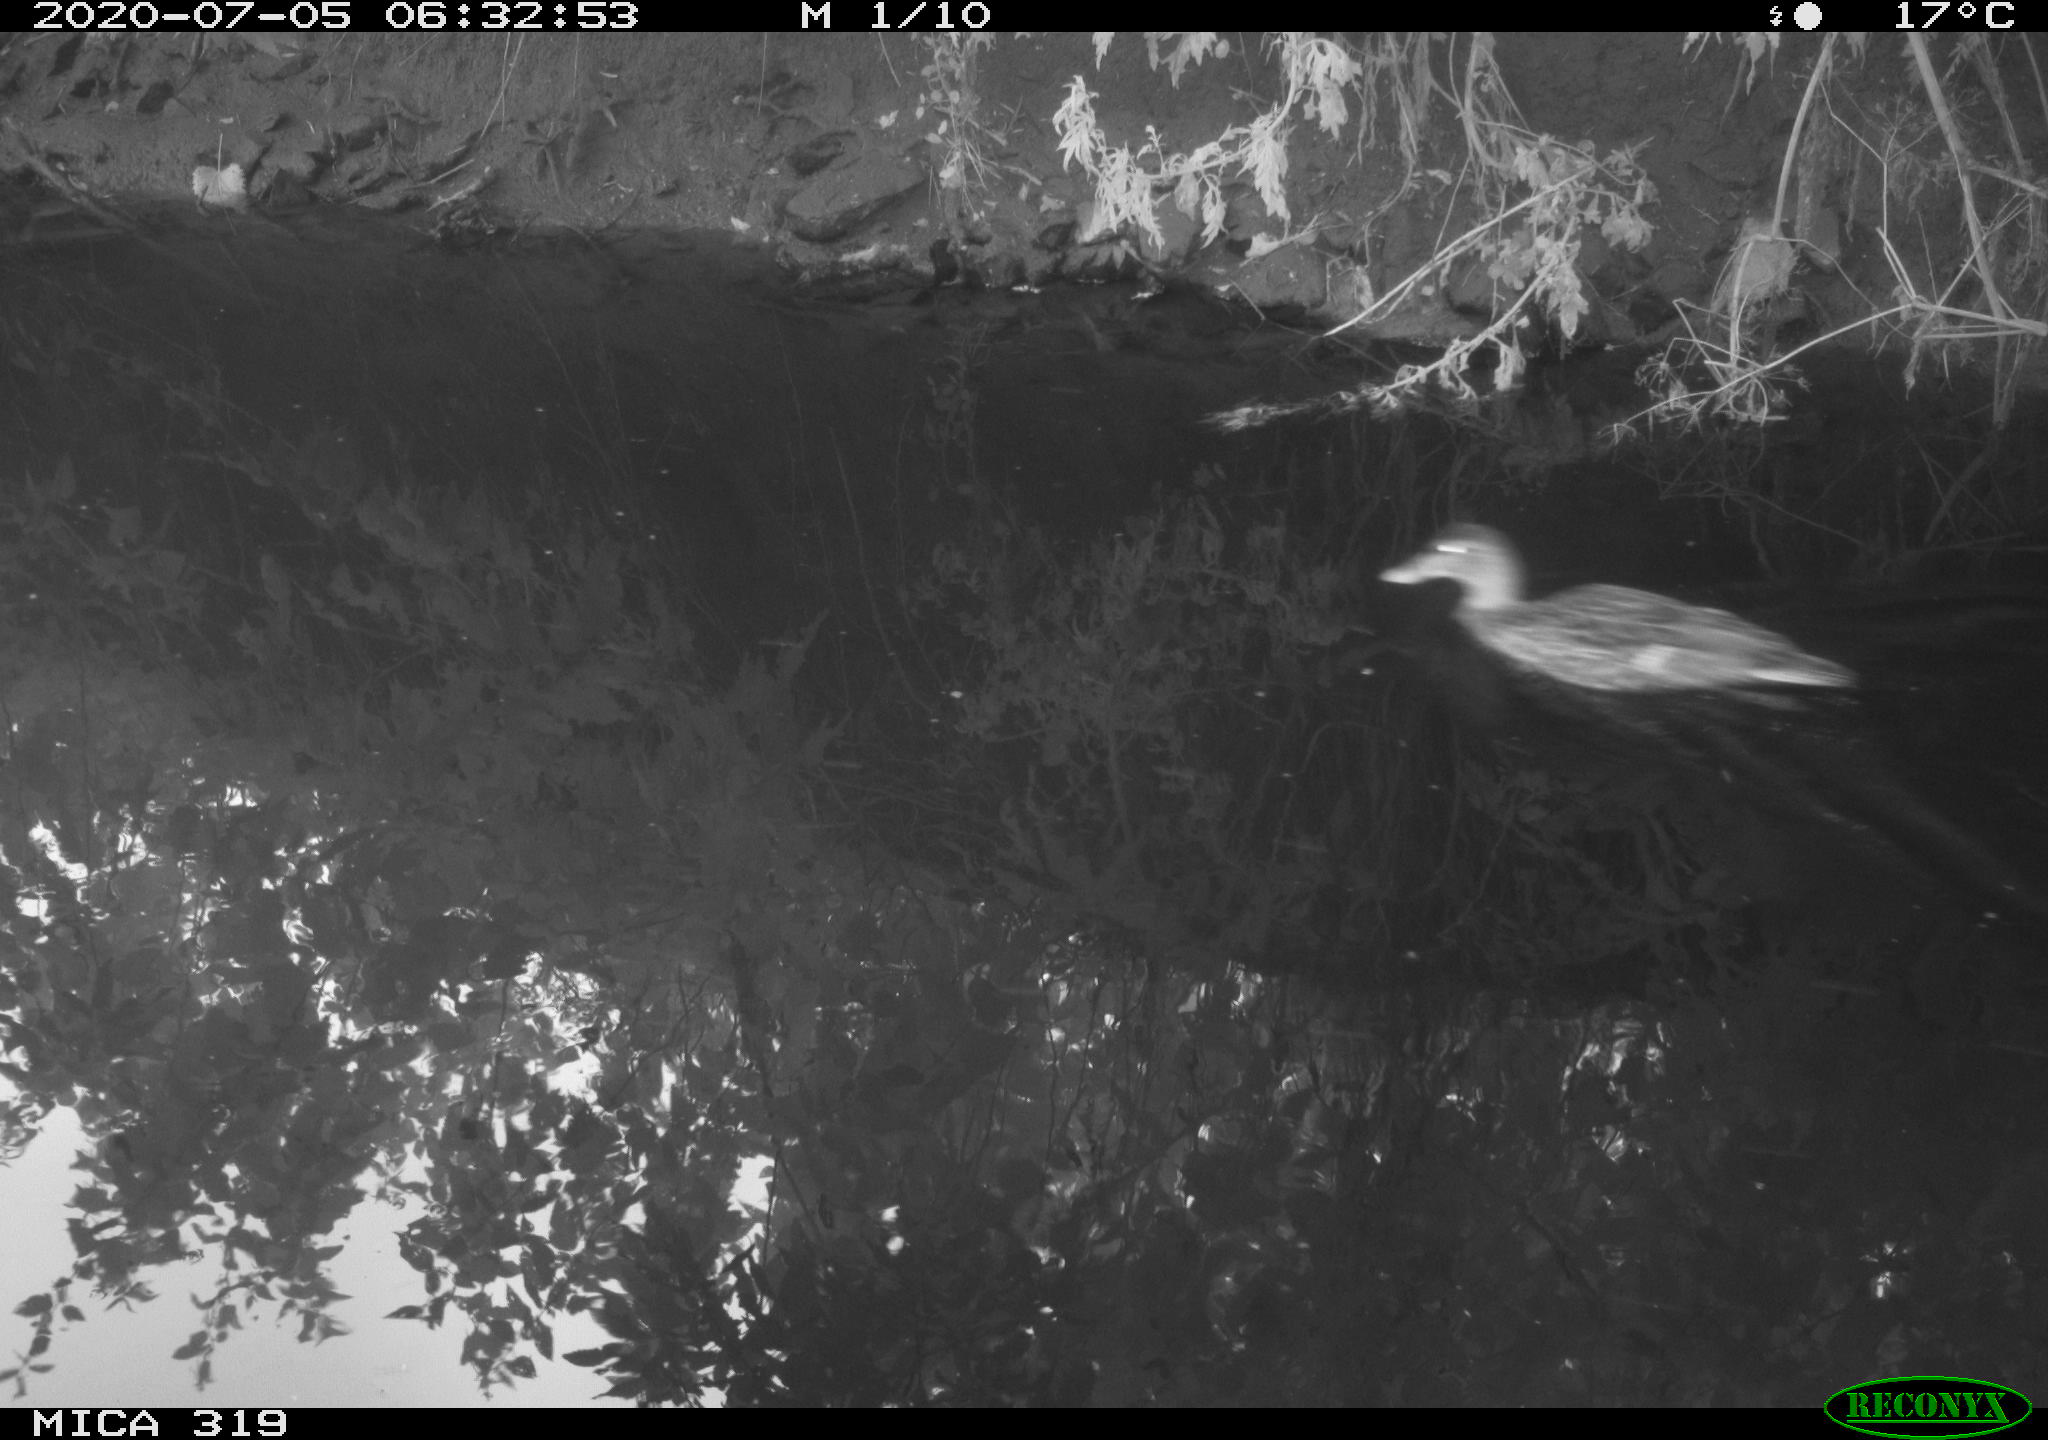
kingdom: Animalia
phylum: Chordata
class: Aves
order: Anseriformes
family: Anatidae
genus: Anas
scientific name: Anas platyrhynchos
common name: Mallard
